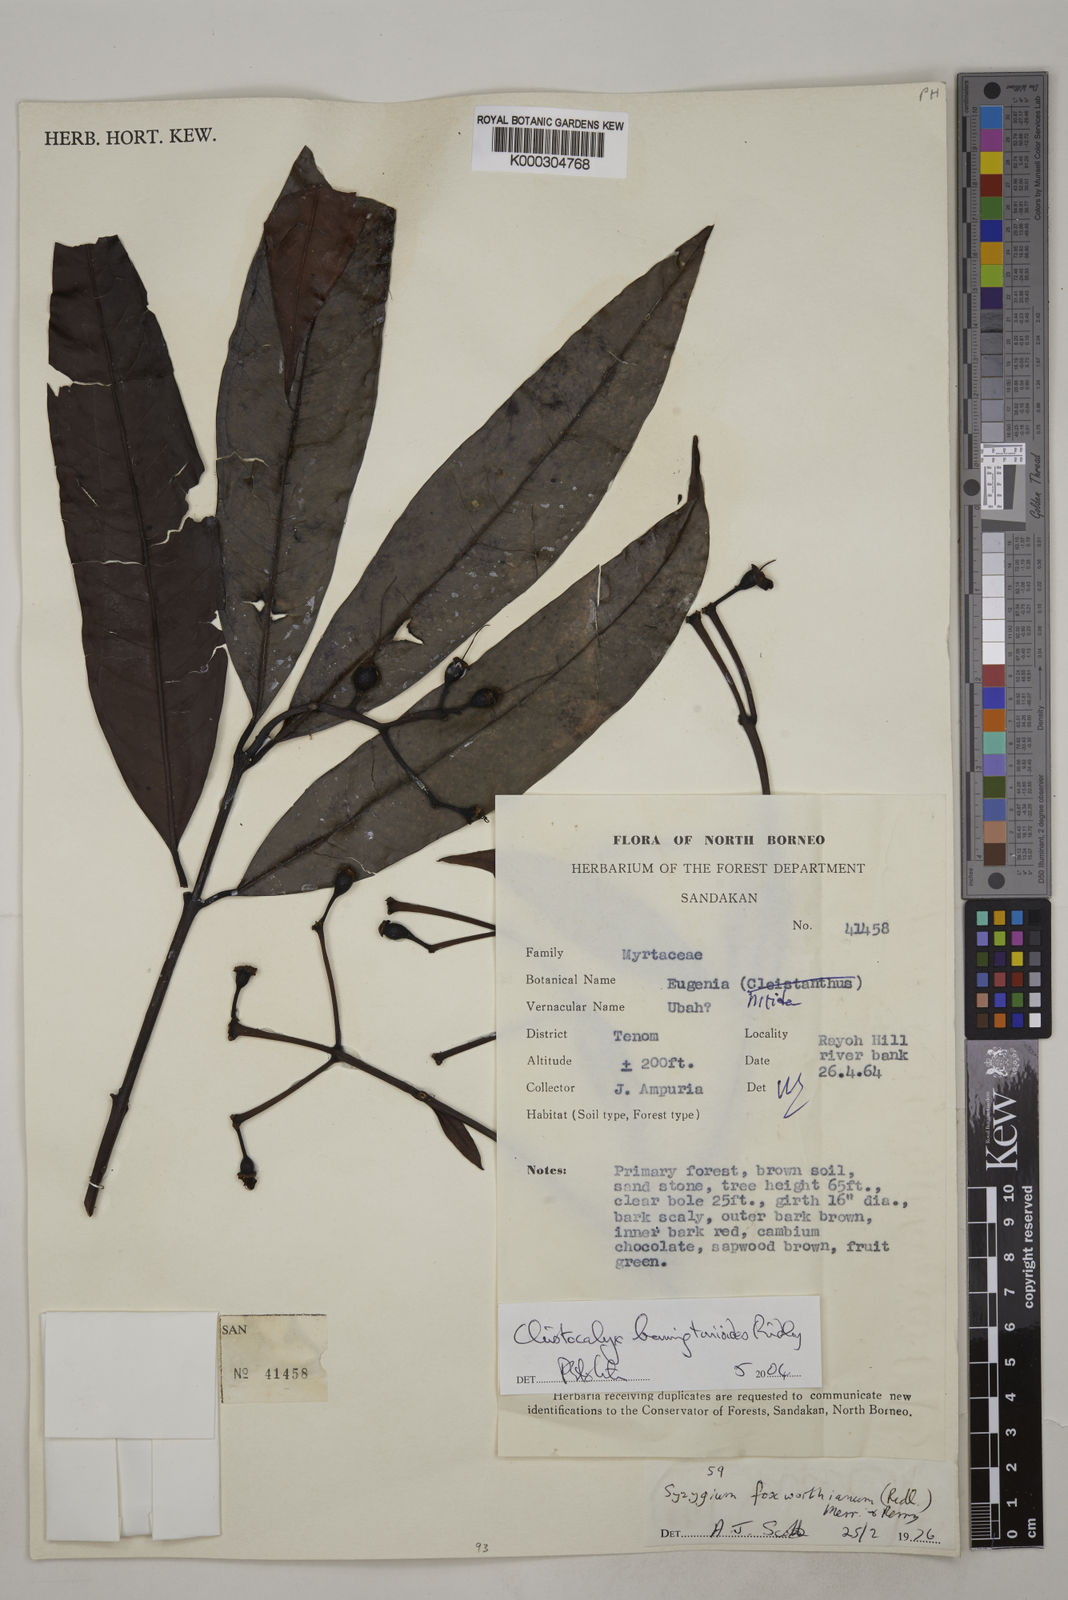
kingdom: Plantae
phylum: Tracheophyta
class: Magnoliopsida
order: Myrtales
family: Myrtaceae
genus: Syzygium
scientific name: Syzygium
